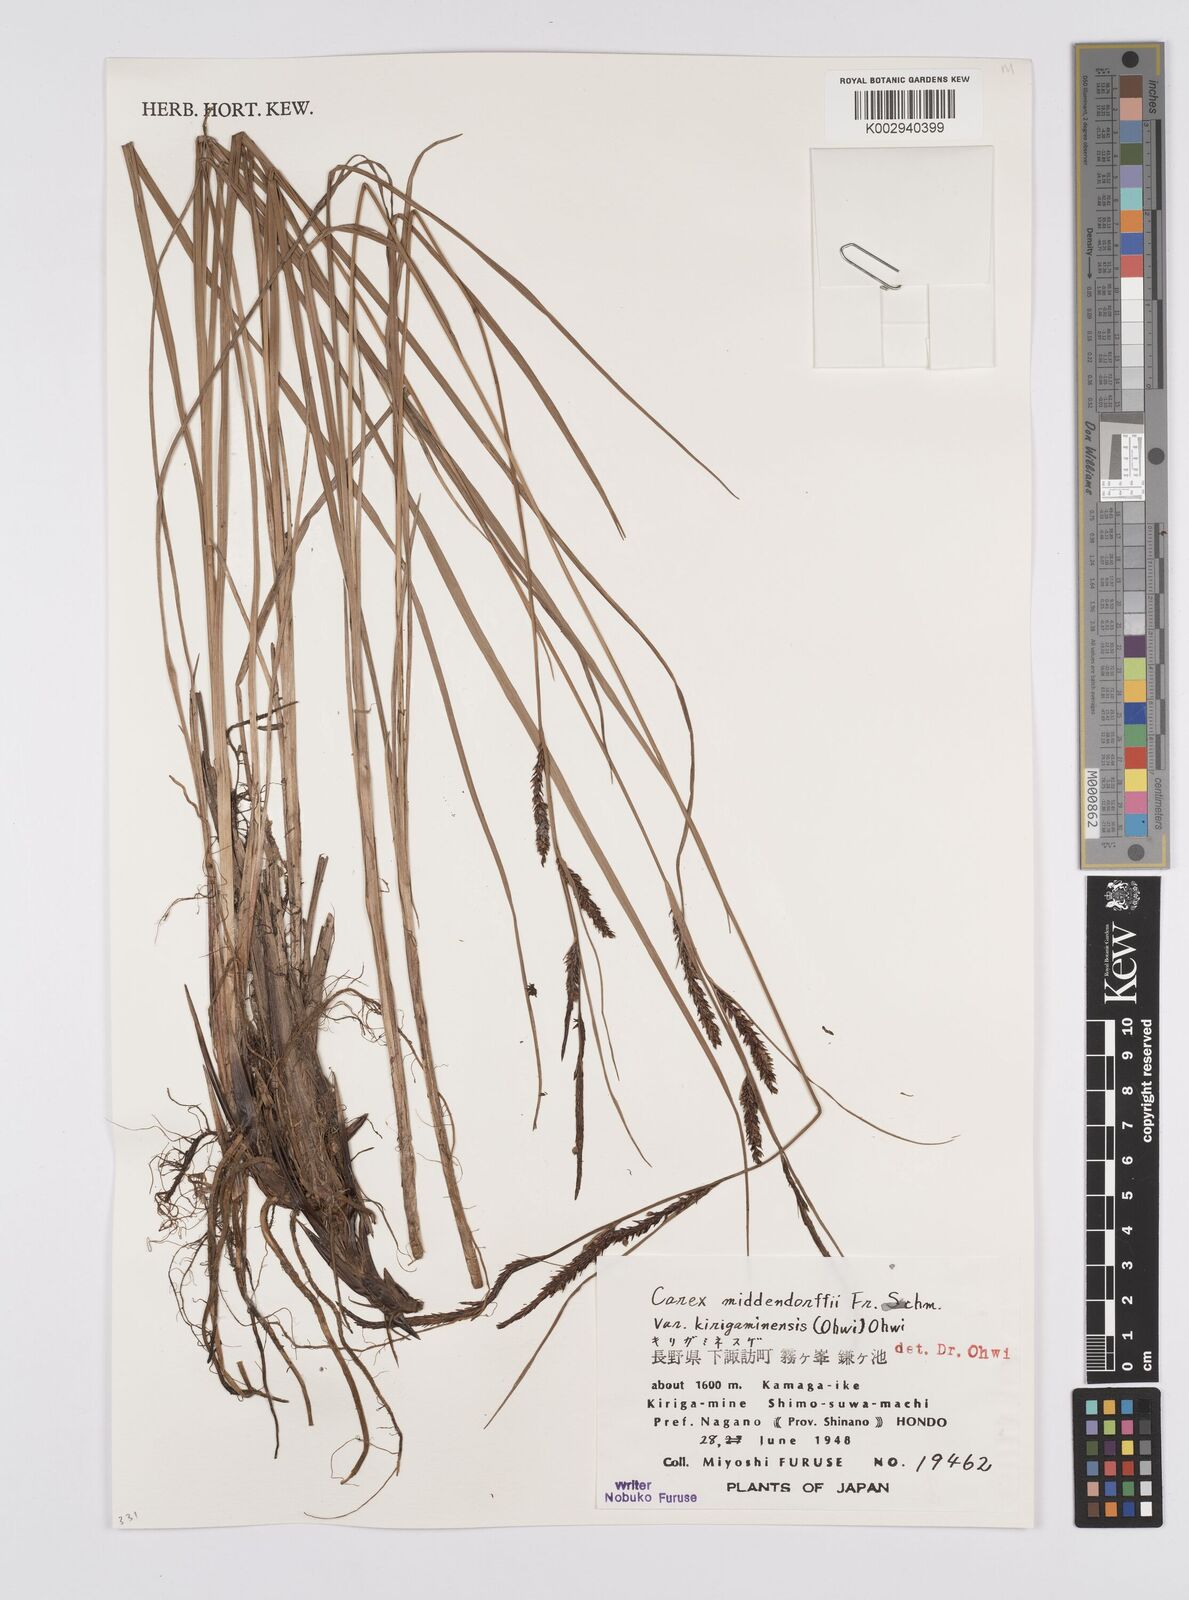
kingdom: Plantae
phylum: Tracheophyta
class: Liliopsida
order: Poales
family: Cyperaceae
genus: Carex
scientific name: Carex middendorffii
